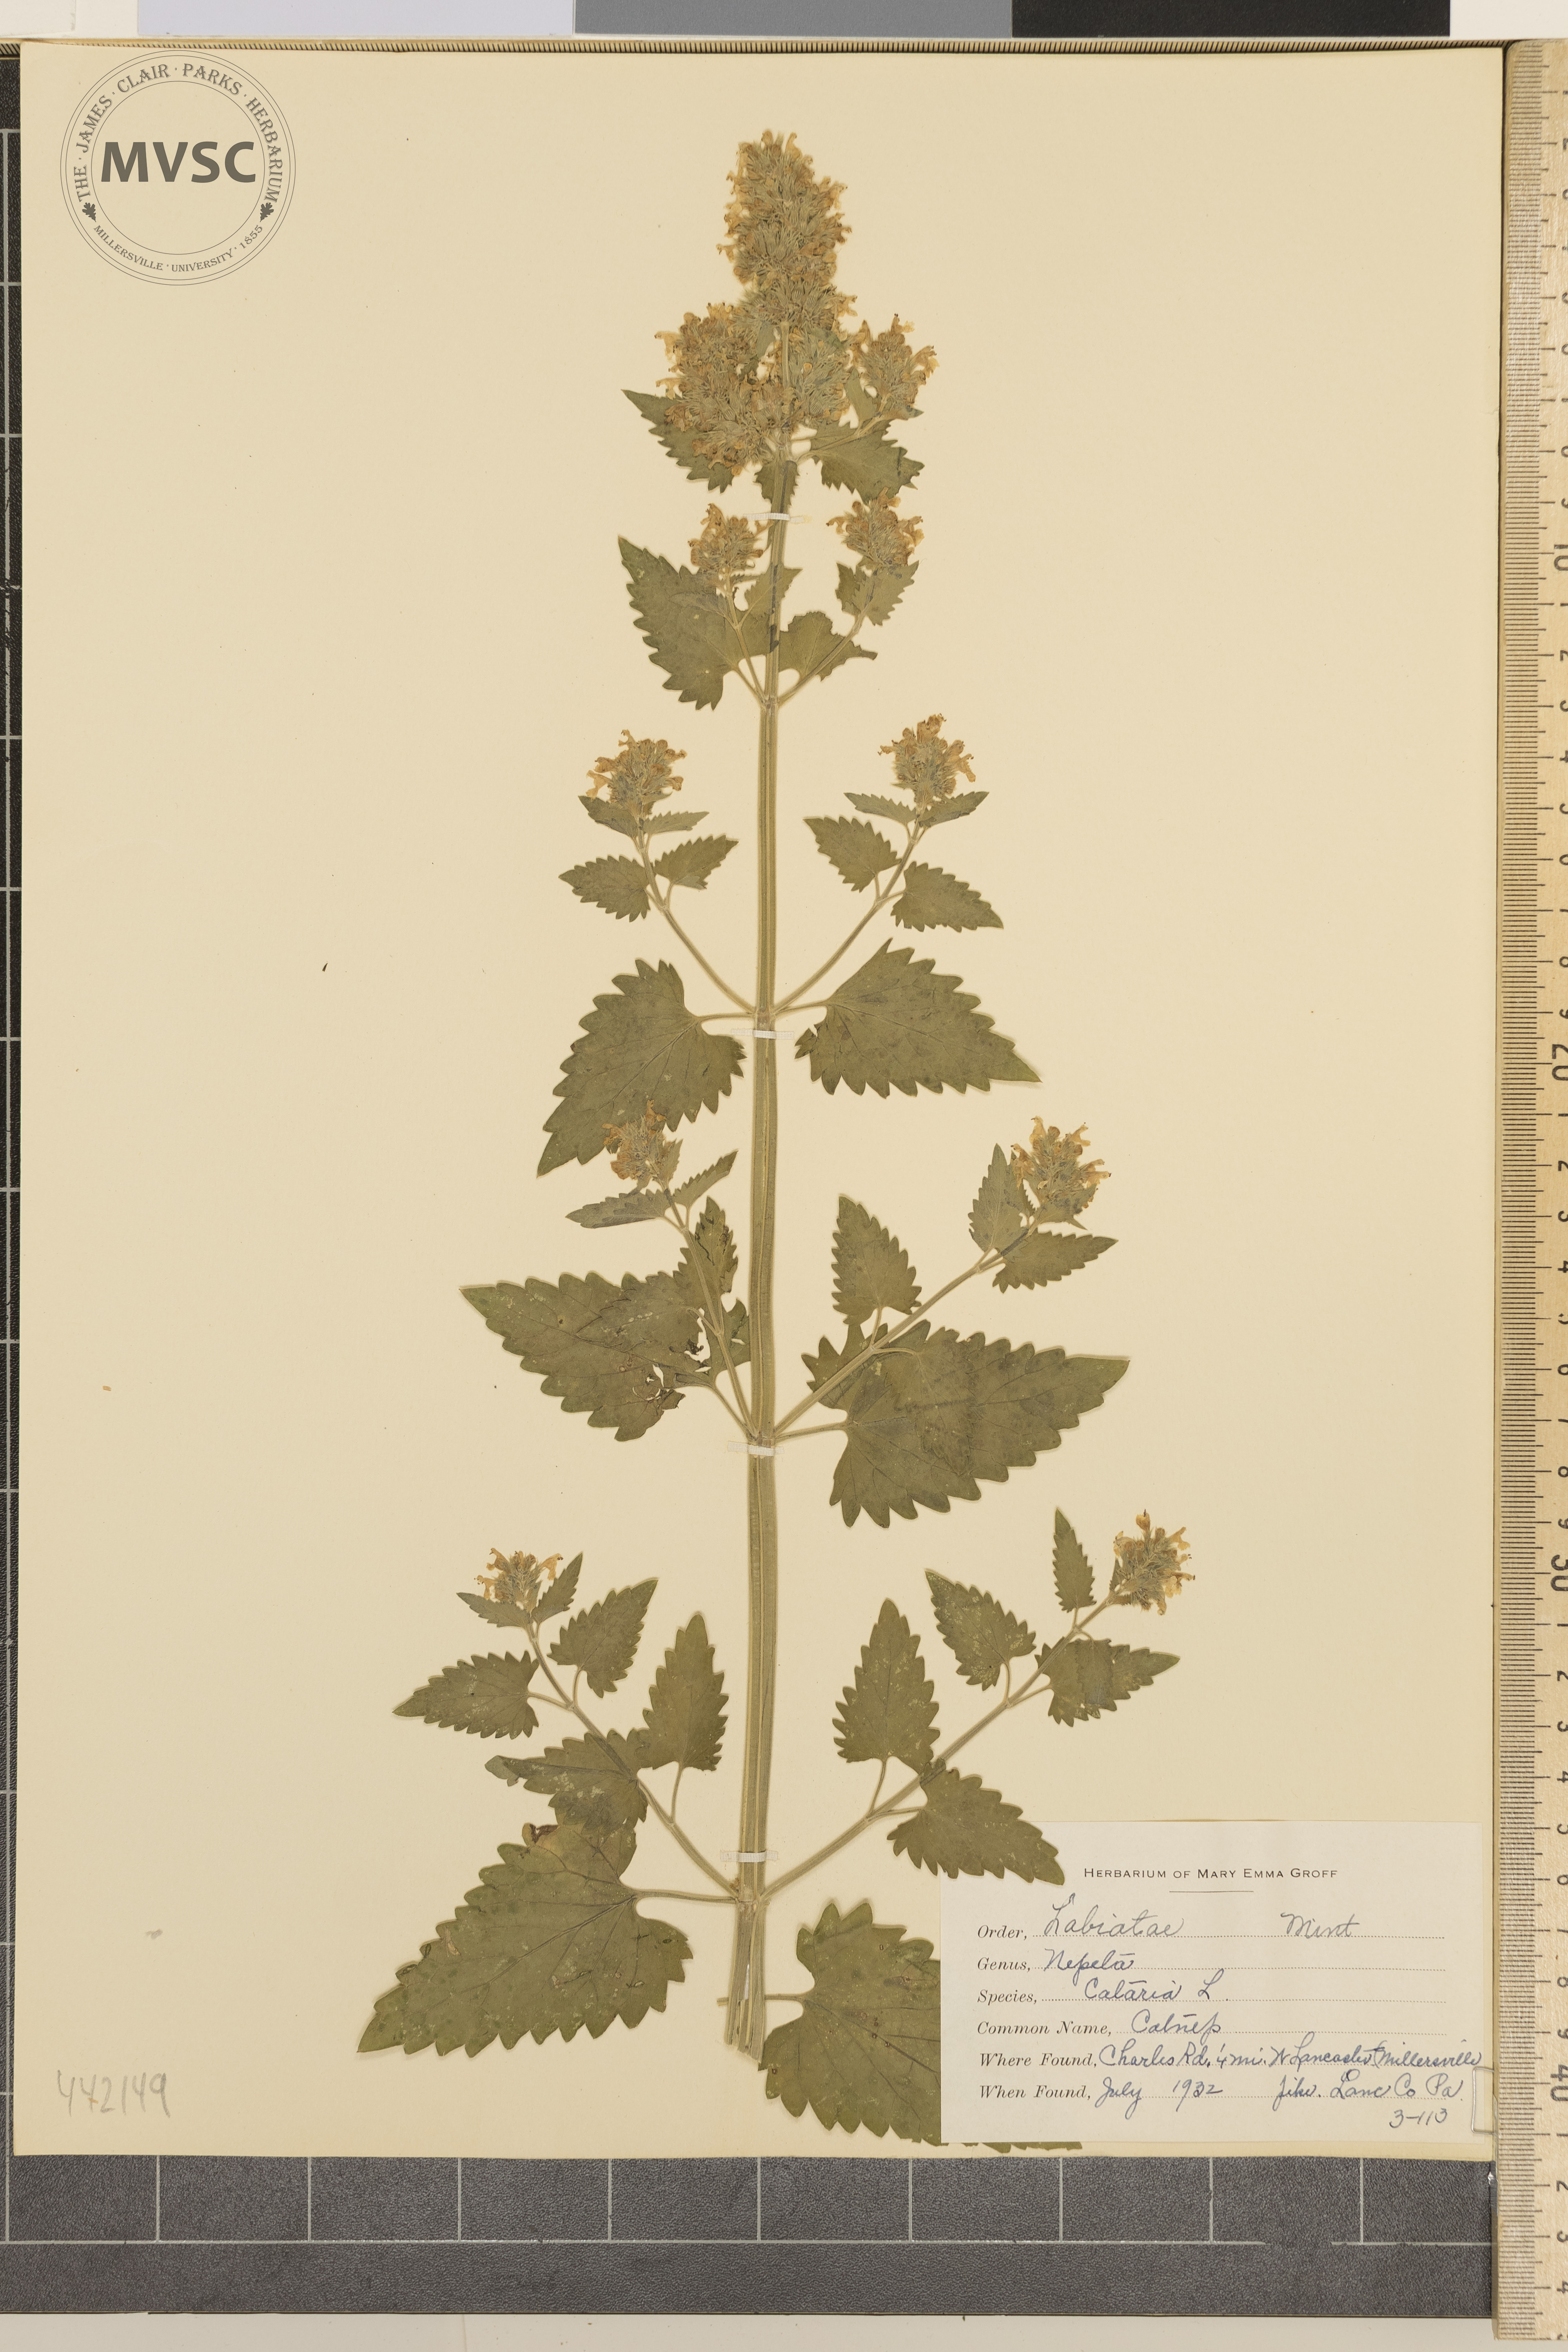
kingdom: Plantae
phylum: Tracheophyta
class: Magnoliopsida
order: Lamiales
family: Lamiaceae
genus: Nepeta
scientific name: Nepeta cataria
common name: Catnip
